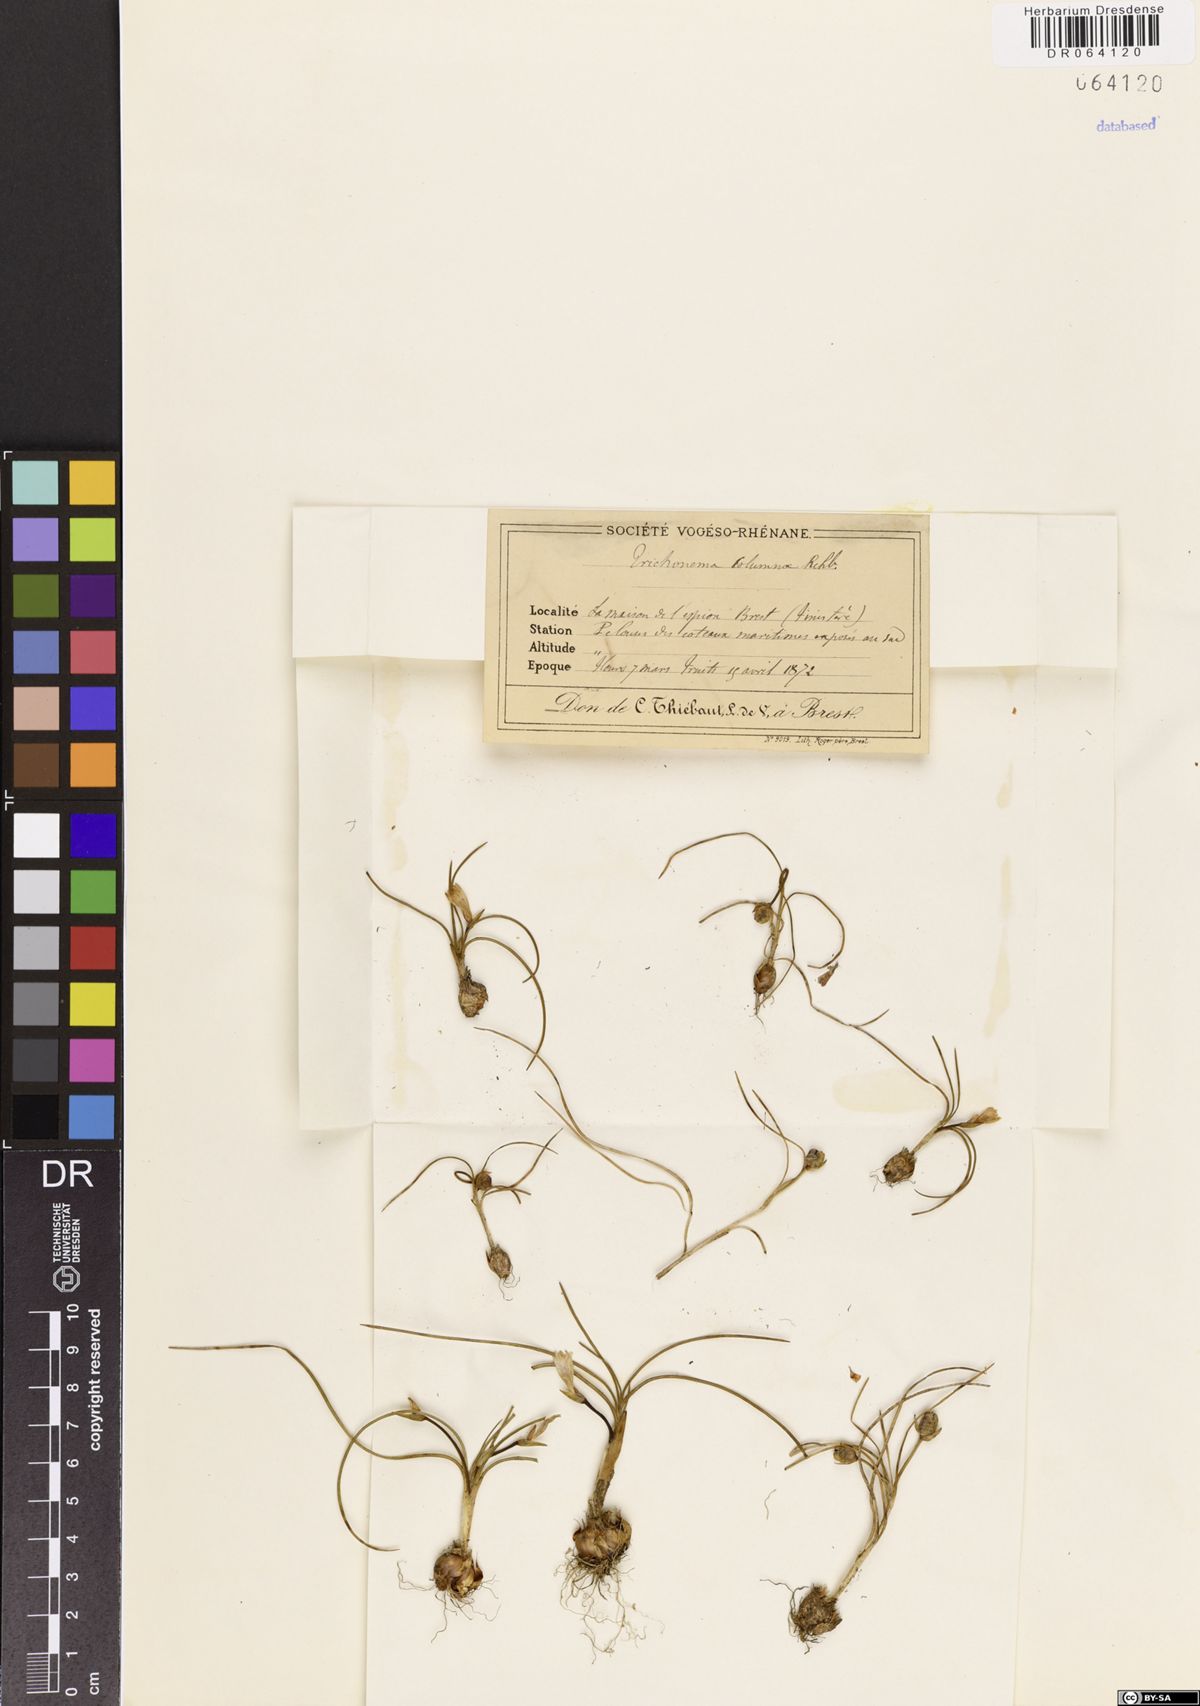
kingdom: Plantae
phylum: Tracheophyta
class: Liliopsida
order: Asparagales
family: Iridaceae
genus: Romulea
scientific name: Romulea columnae
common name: Sand-crocus
